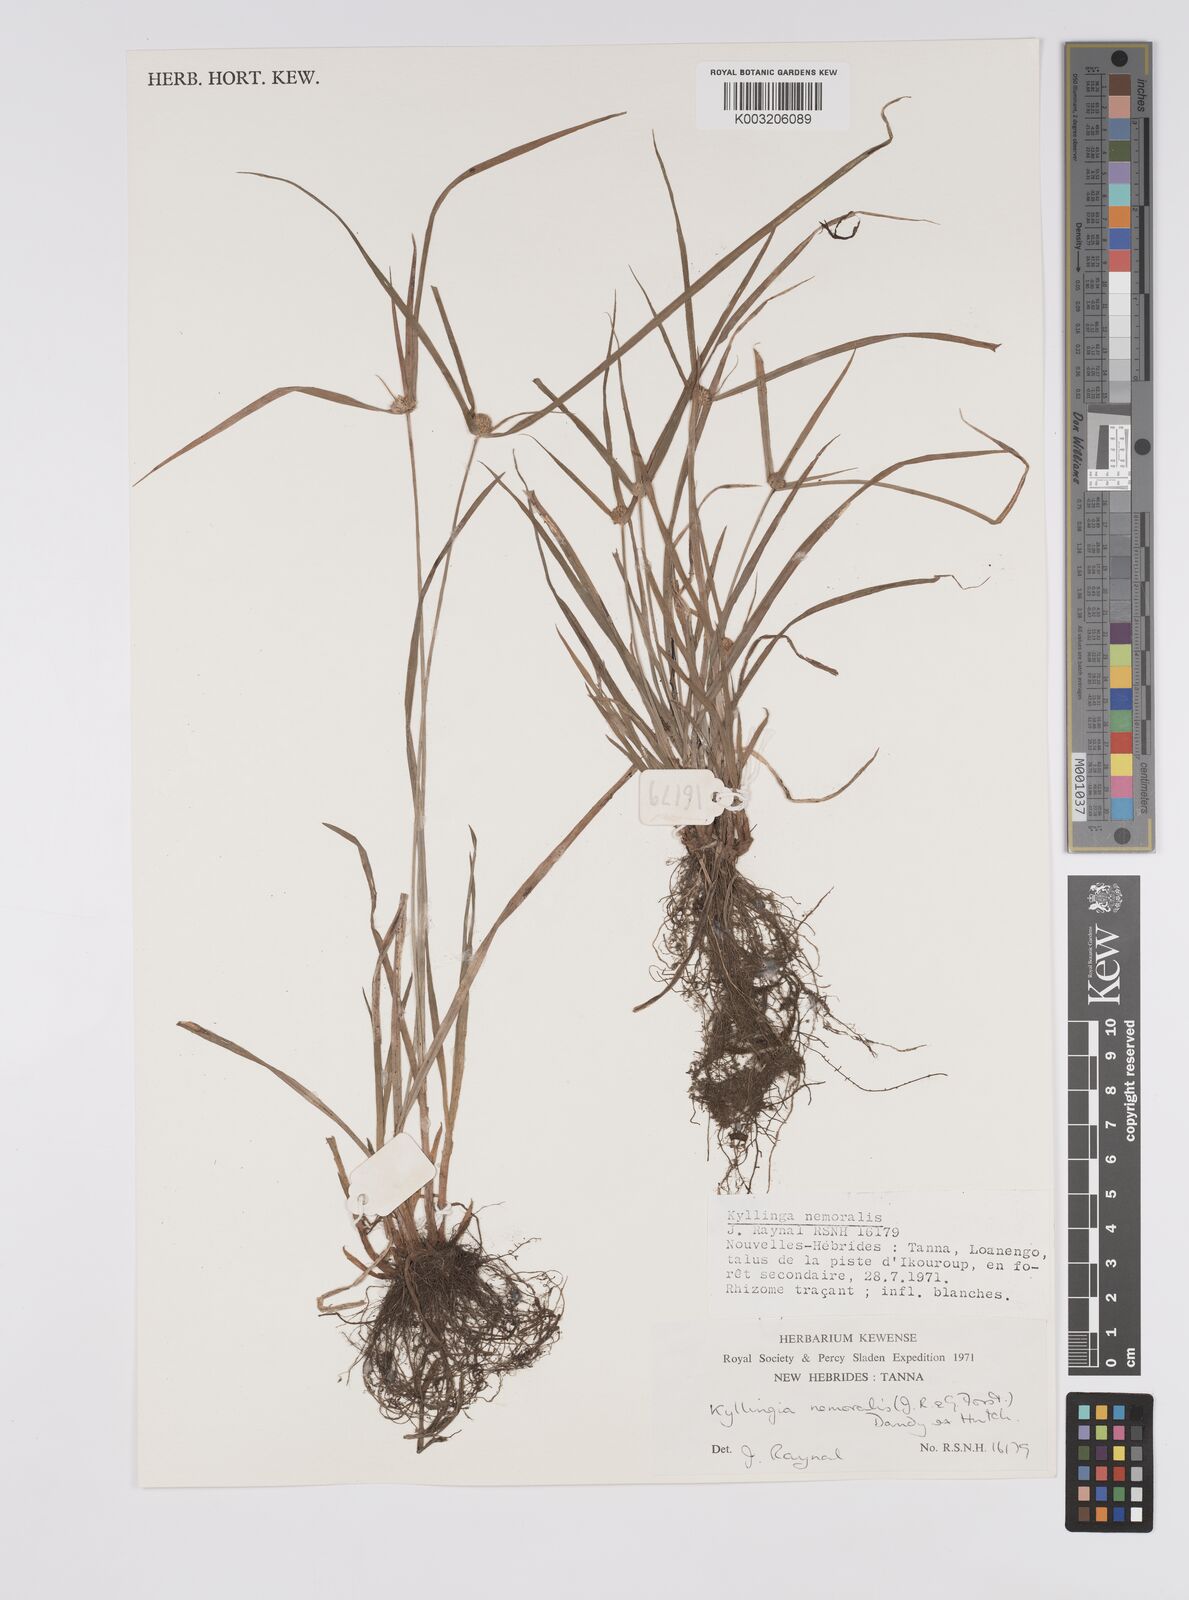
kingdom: Plantae
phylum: Tracheophyta
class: Liliopsida
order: Poales
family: Cyperaceae
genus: Cyperus
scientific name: Cyperus nemoralis
